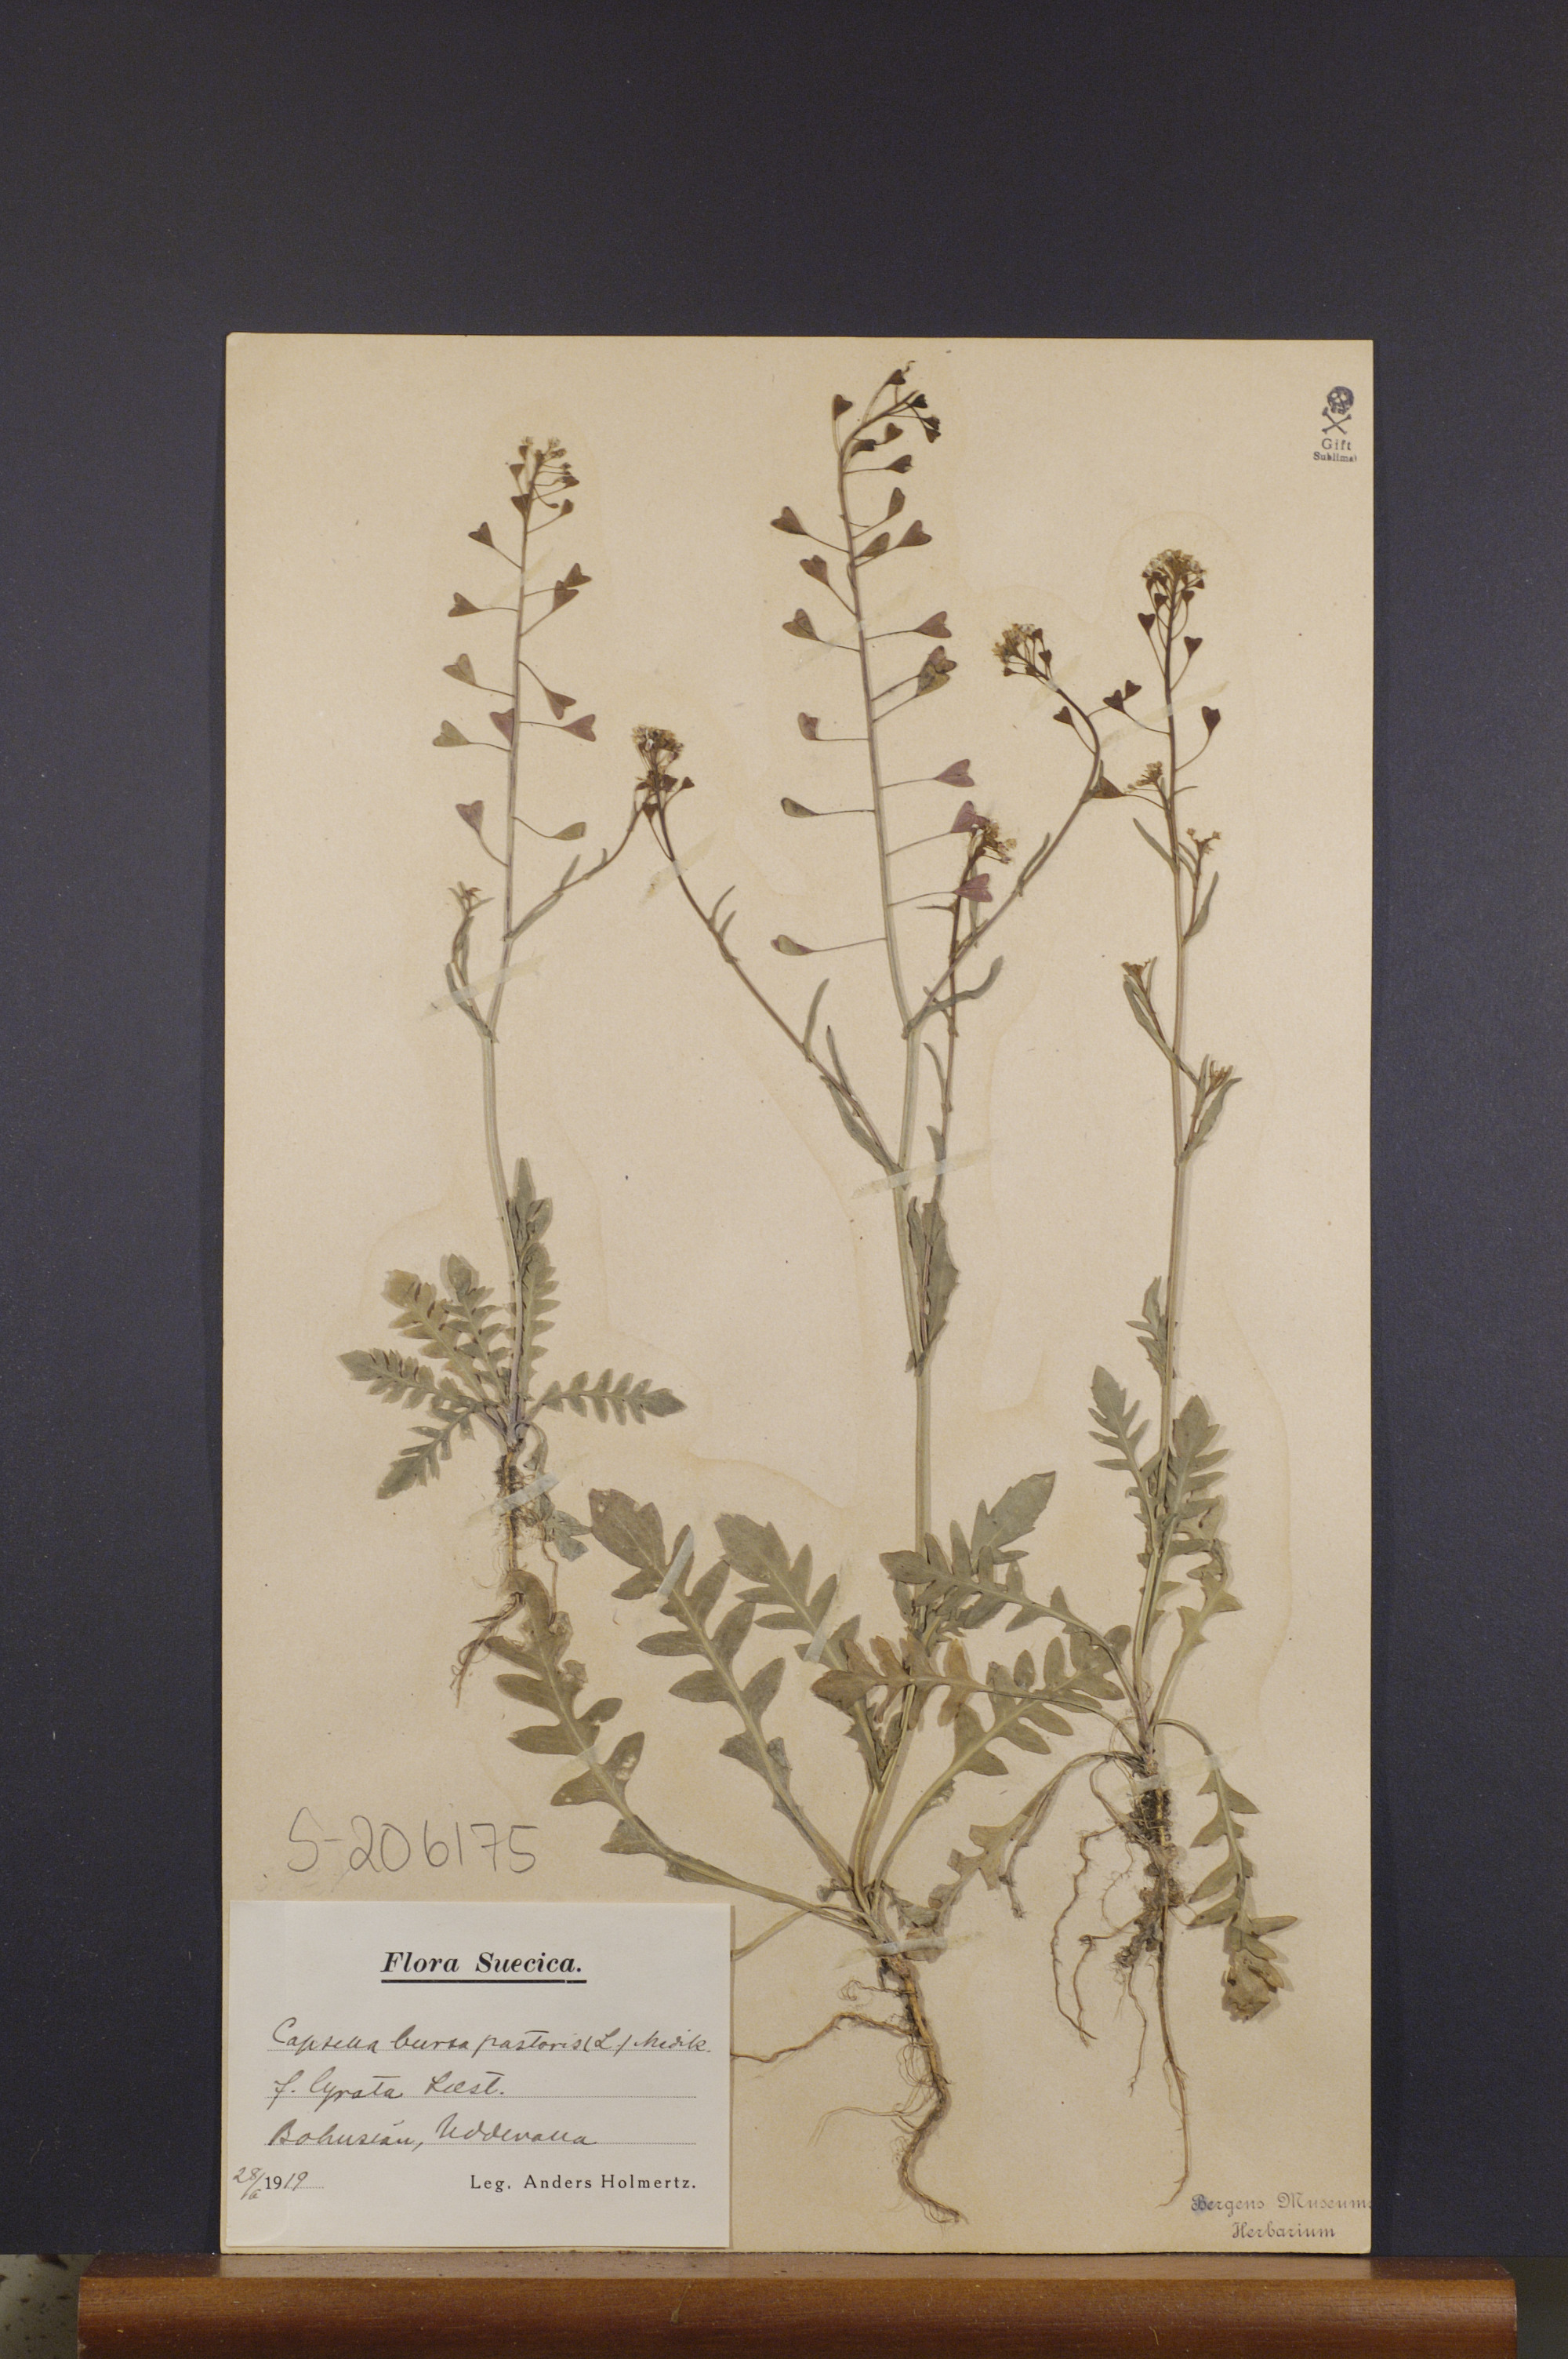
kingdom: Plantae
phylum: Tracheophyta
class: Magnoliopsida
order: Brassicales
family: Brassicaceae
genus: Capsella
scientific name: Capsella bursa-pastoris
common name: Shepherd's purse
